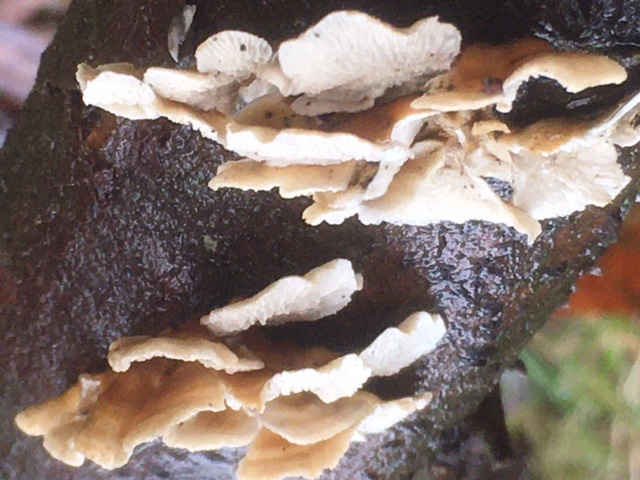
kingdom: Fungi
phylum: Basidiomycota
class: Agaricomycetes
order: Amylocorticiales
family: Amylocorticiaceae
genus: Plicaturopsis
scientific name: Plicaturopsis crispa
